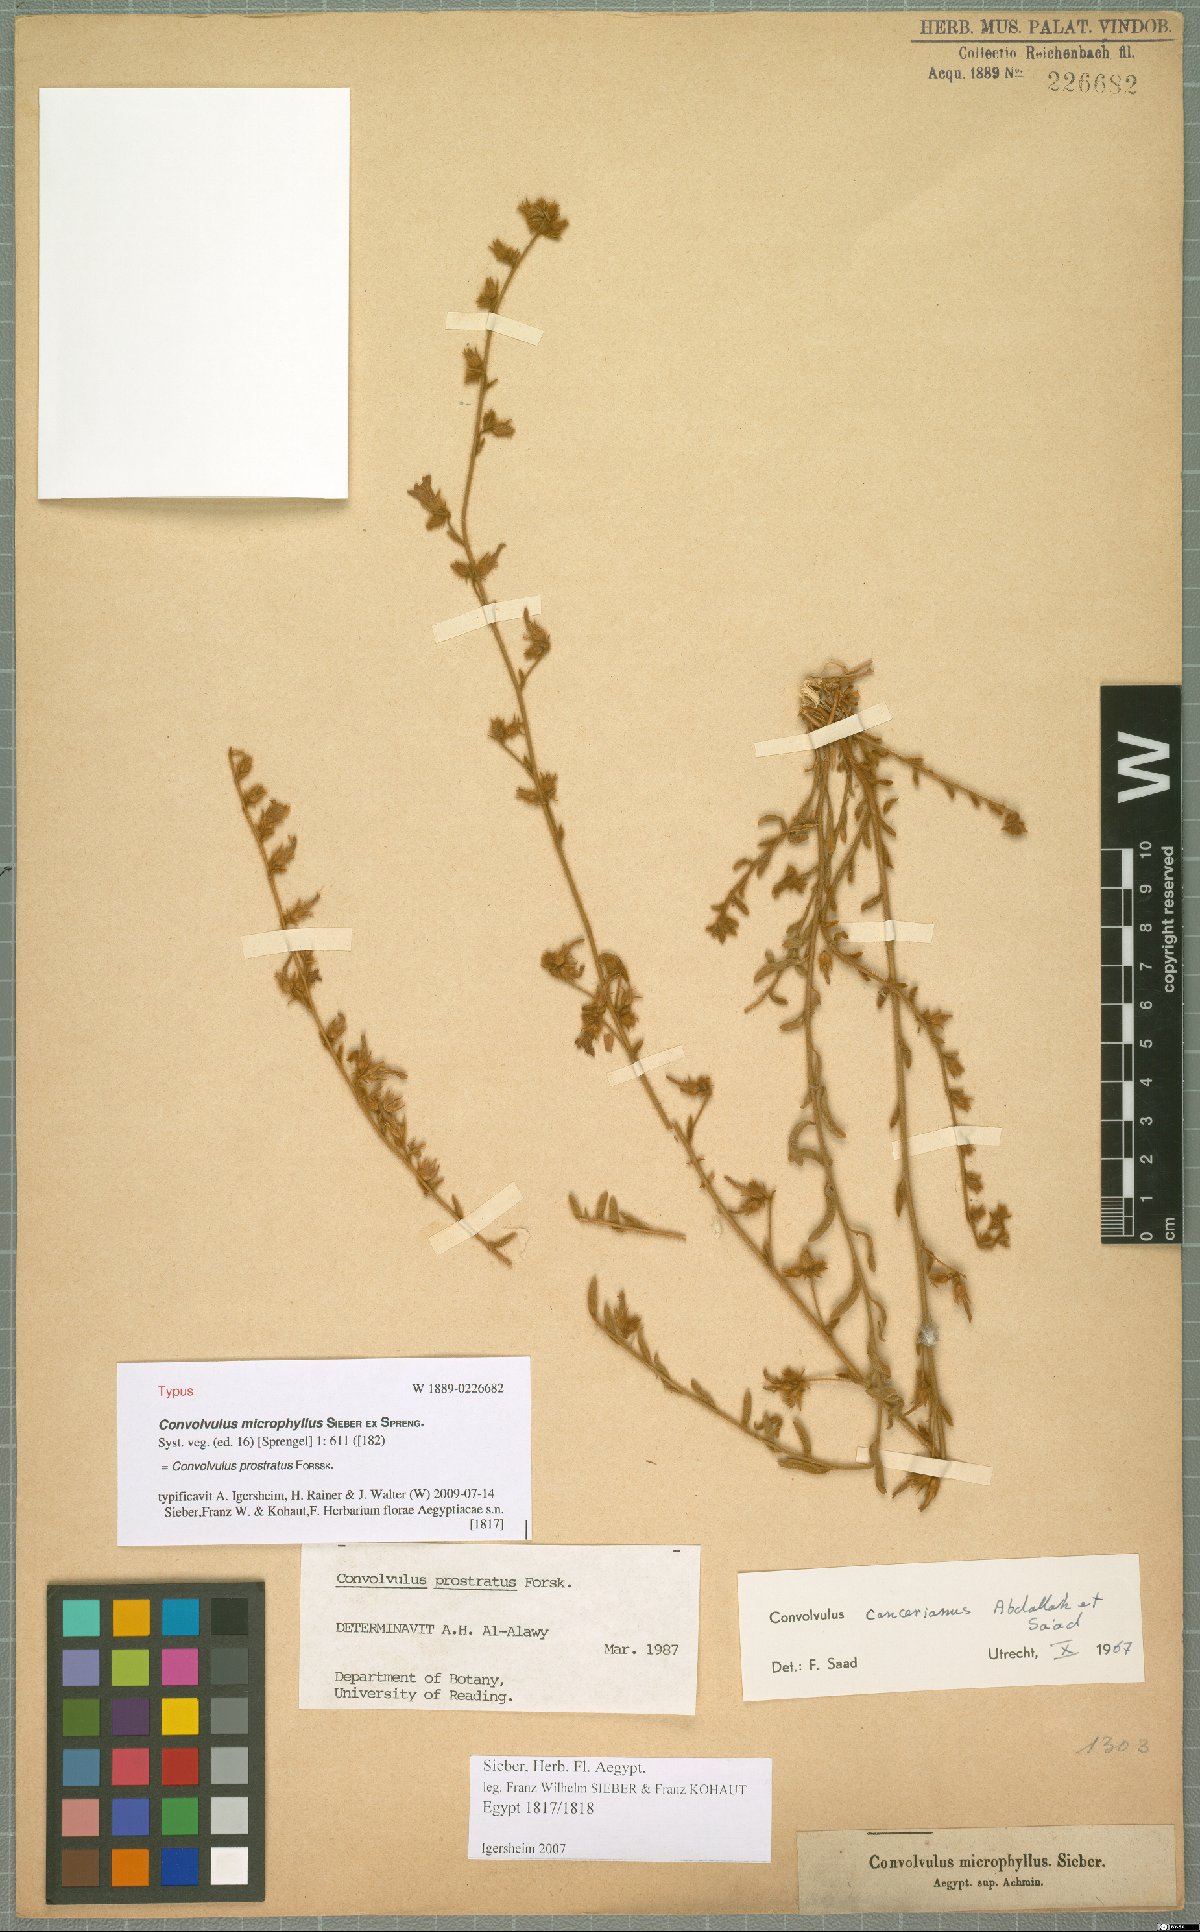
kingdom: Plantae
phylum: Tracheophyta
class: Magnoliopsida
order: Solanales
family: Convolvulaceae
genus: Convolvulus
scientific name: Convolvulus prostratus
